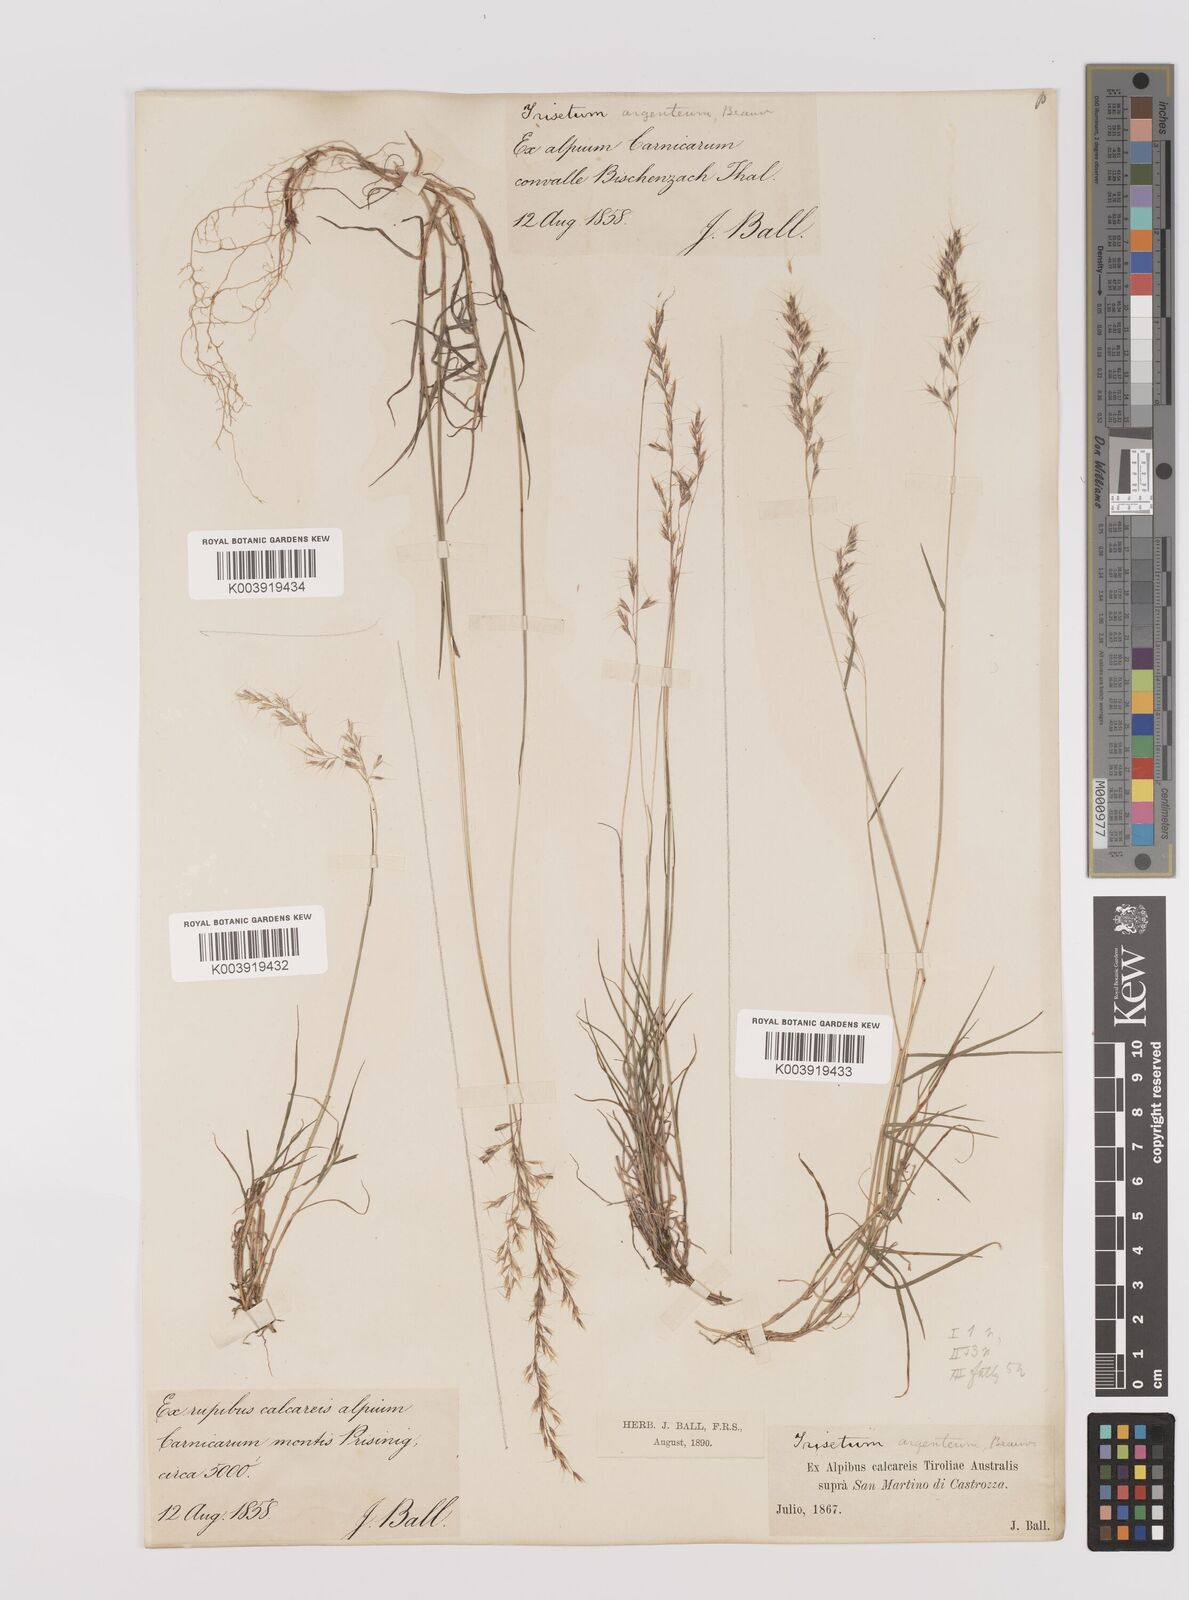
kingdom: Plantae
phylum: Tracheophyta
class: Liliopsida
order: Poales
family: Poaceae
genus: Trisetum
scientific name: Trisetum argenteum
